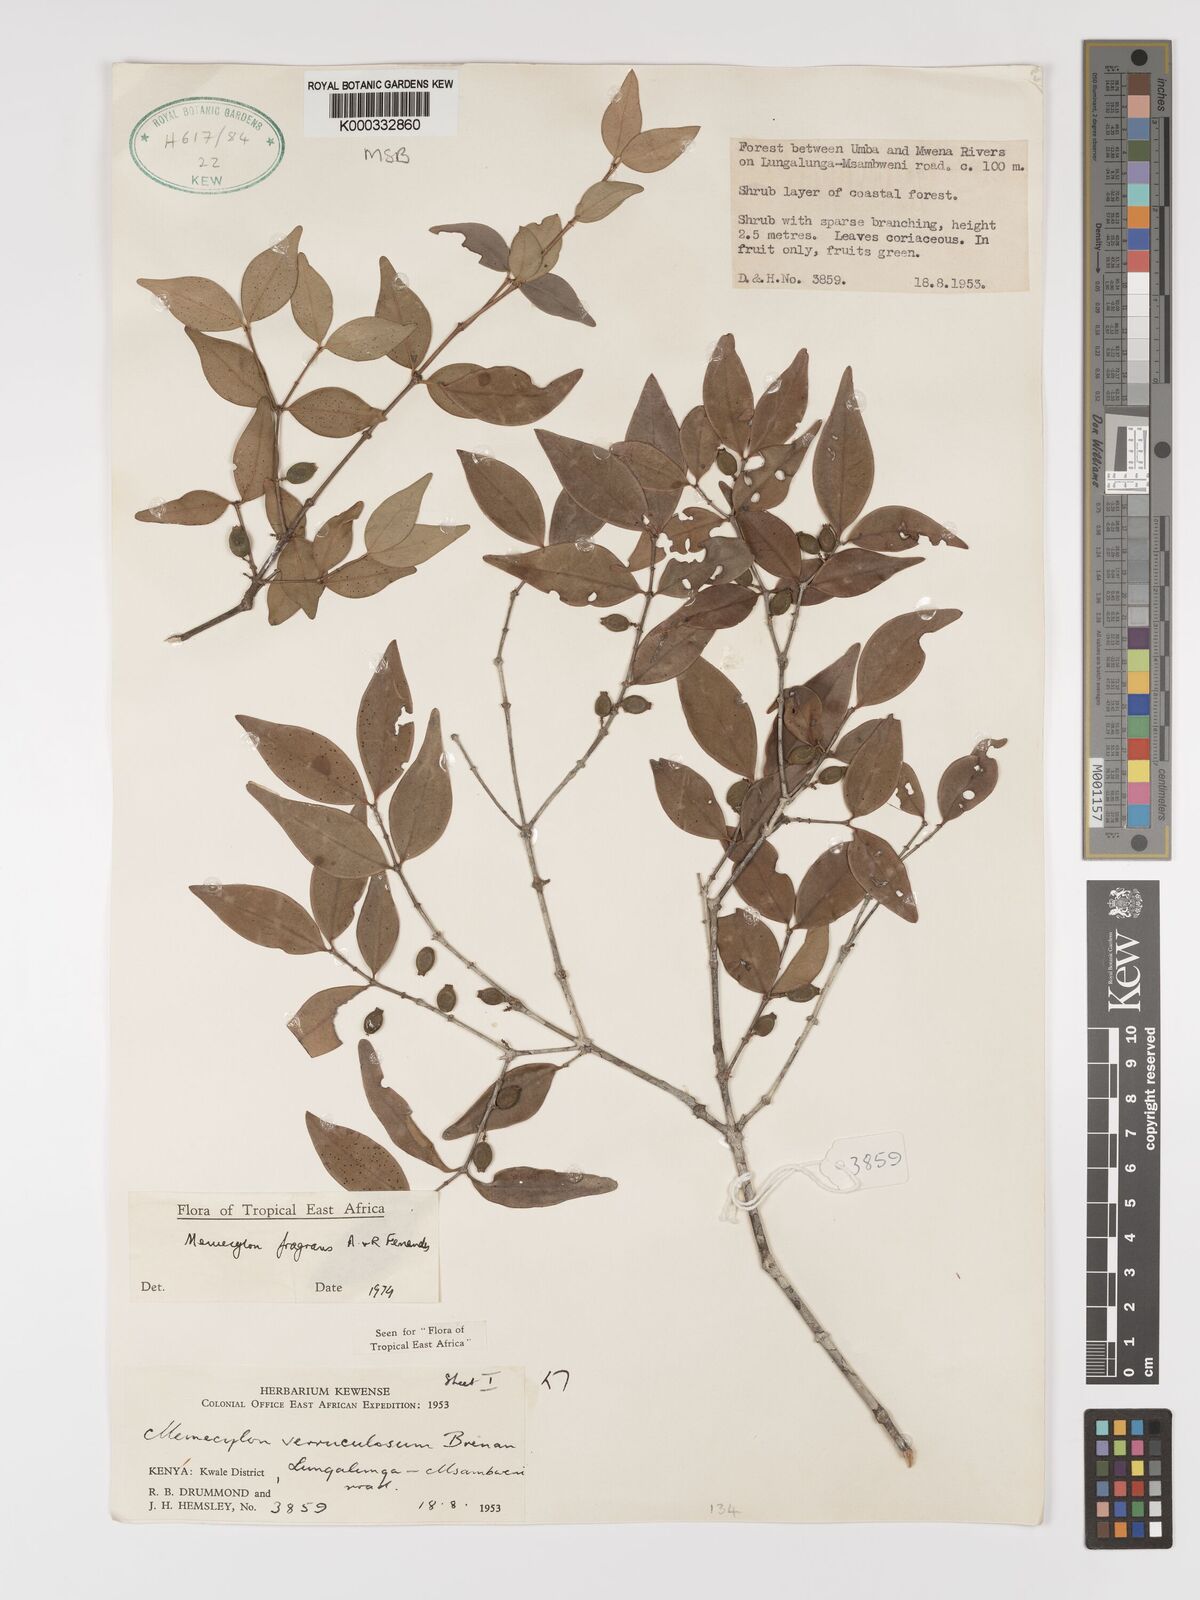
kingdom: Plantae
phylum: Tracheophyta
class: Magnoliopsida
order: Myrtales
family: Melastomataceae
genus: Memecylon
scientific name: Memecylon fragrans
